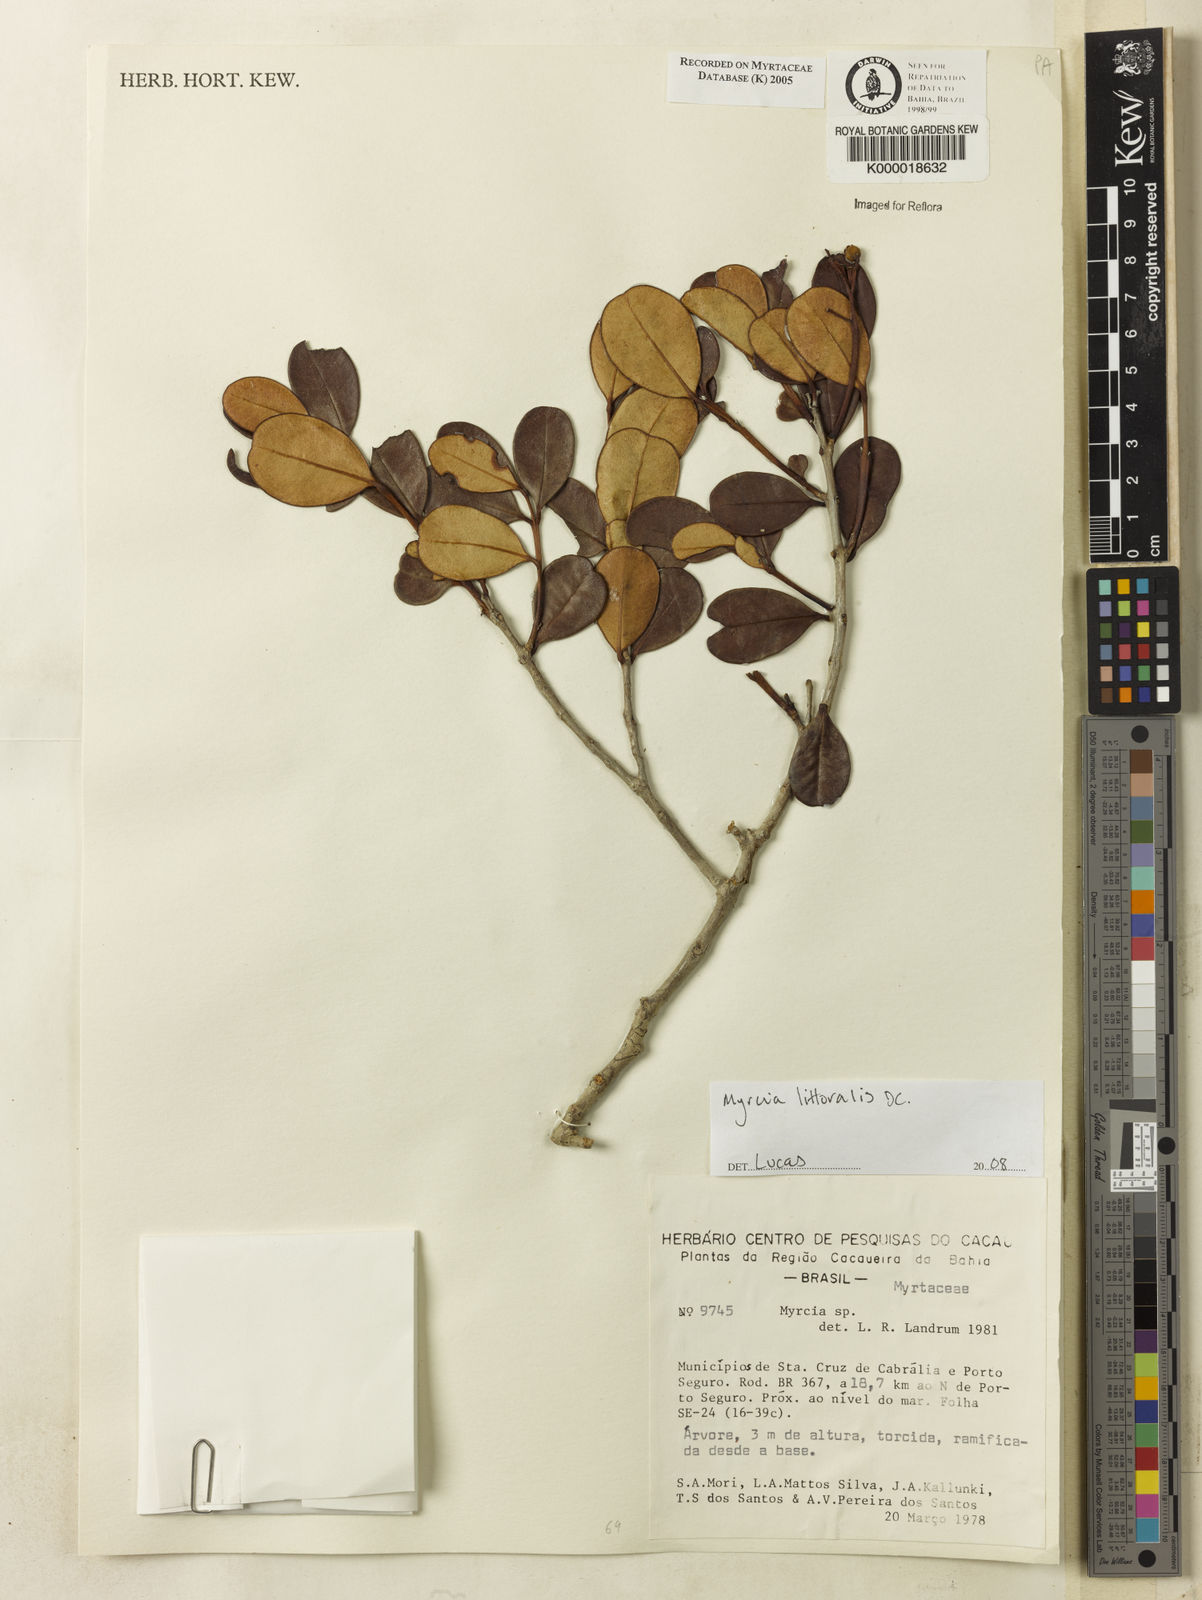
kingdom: Plantae
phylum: Tracheophyta
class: Magnoliopsida
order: Myrtales
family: Myrtaceae
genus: Myrcia
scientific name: Myrcia
